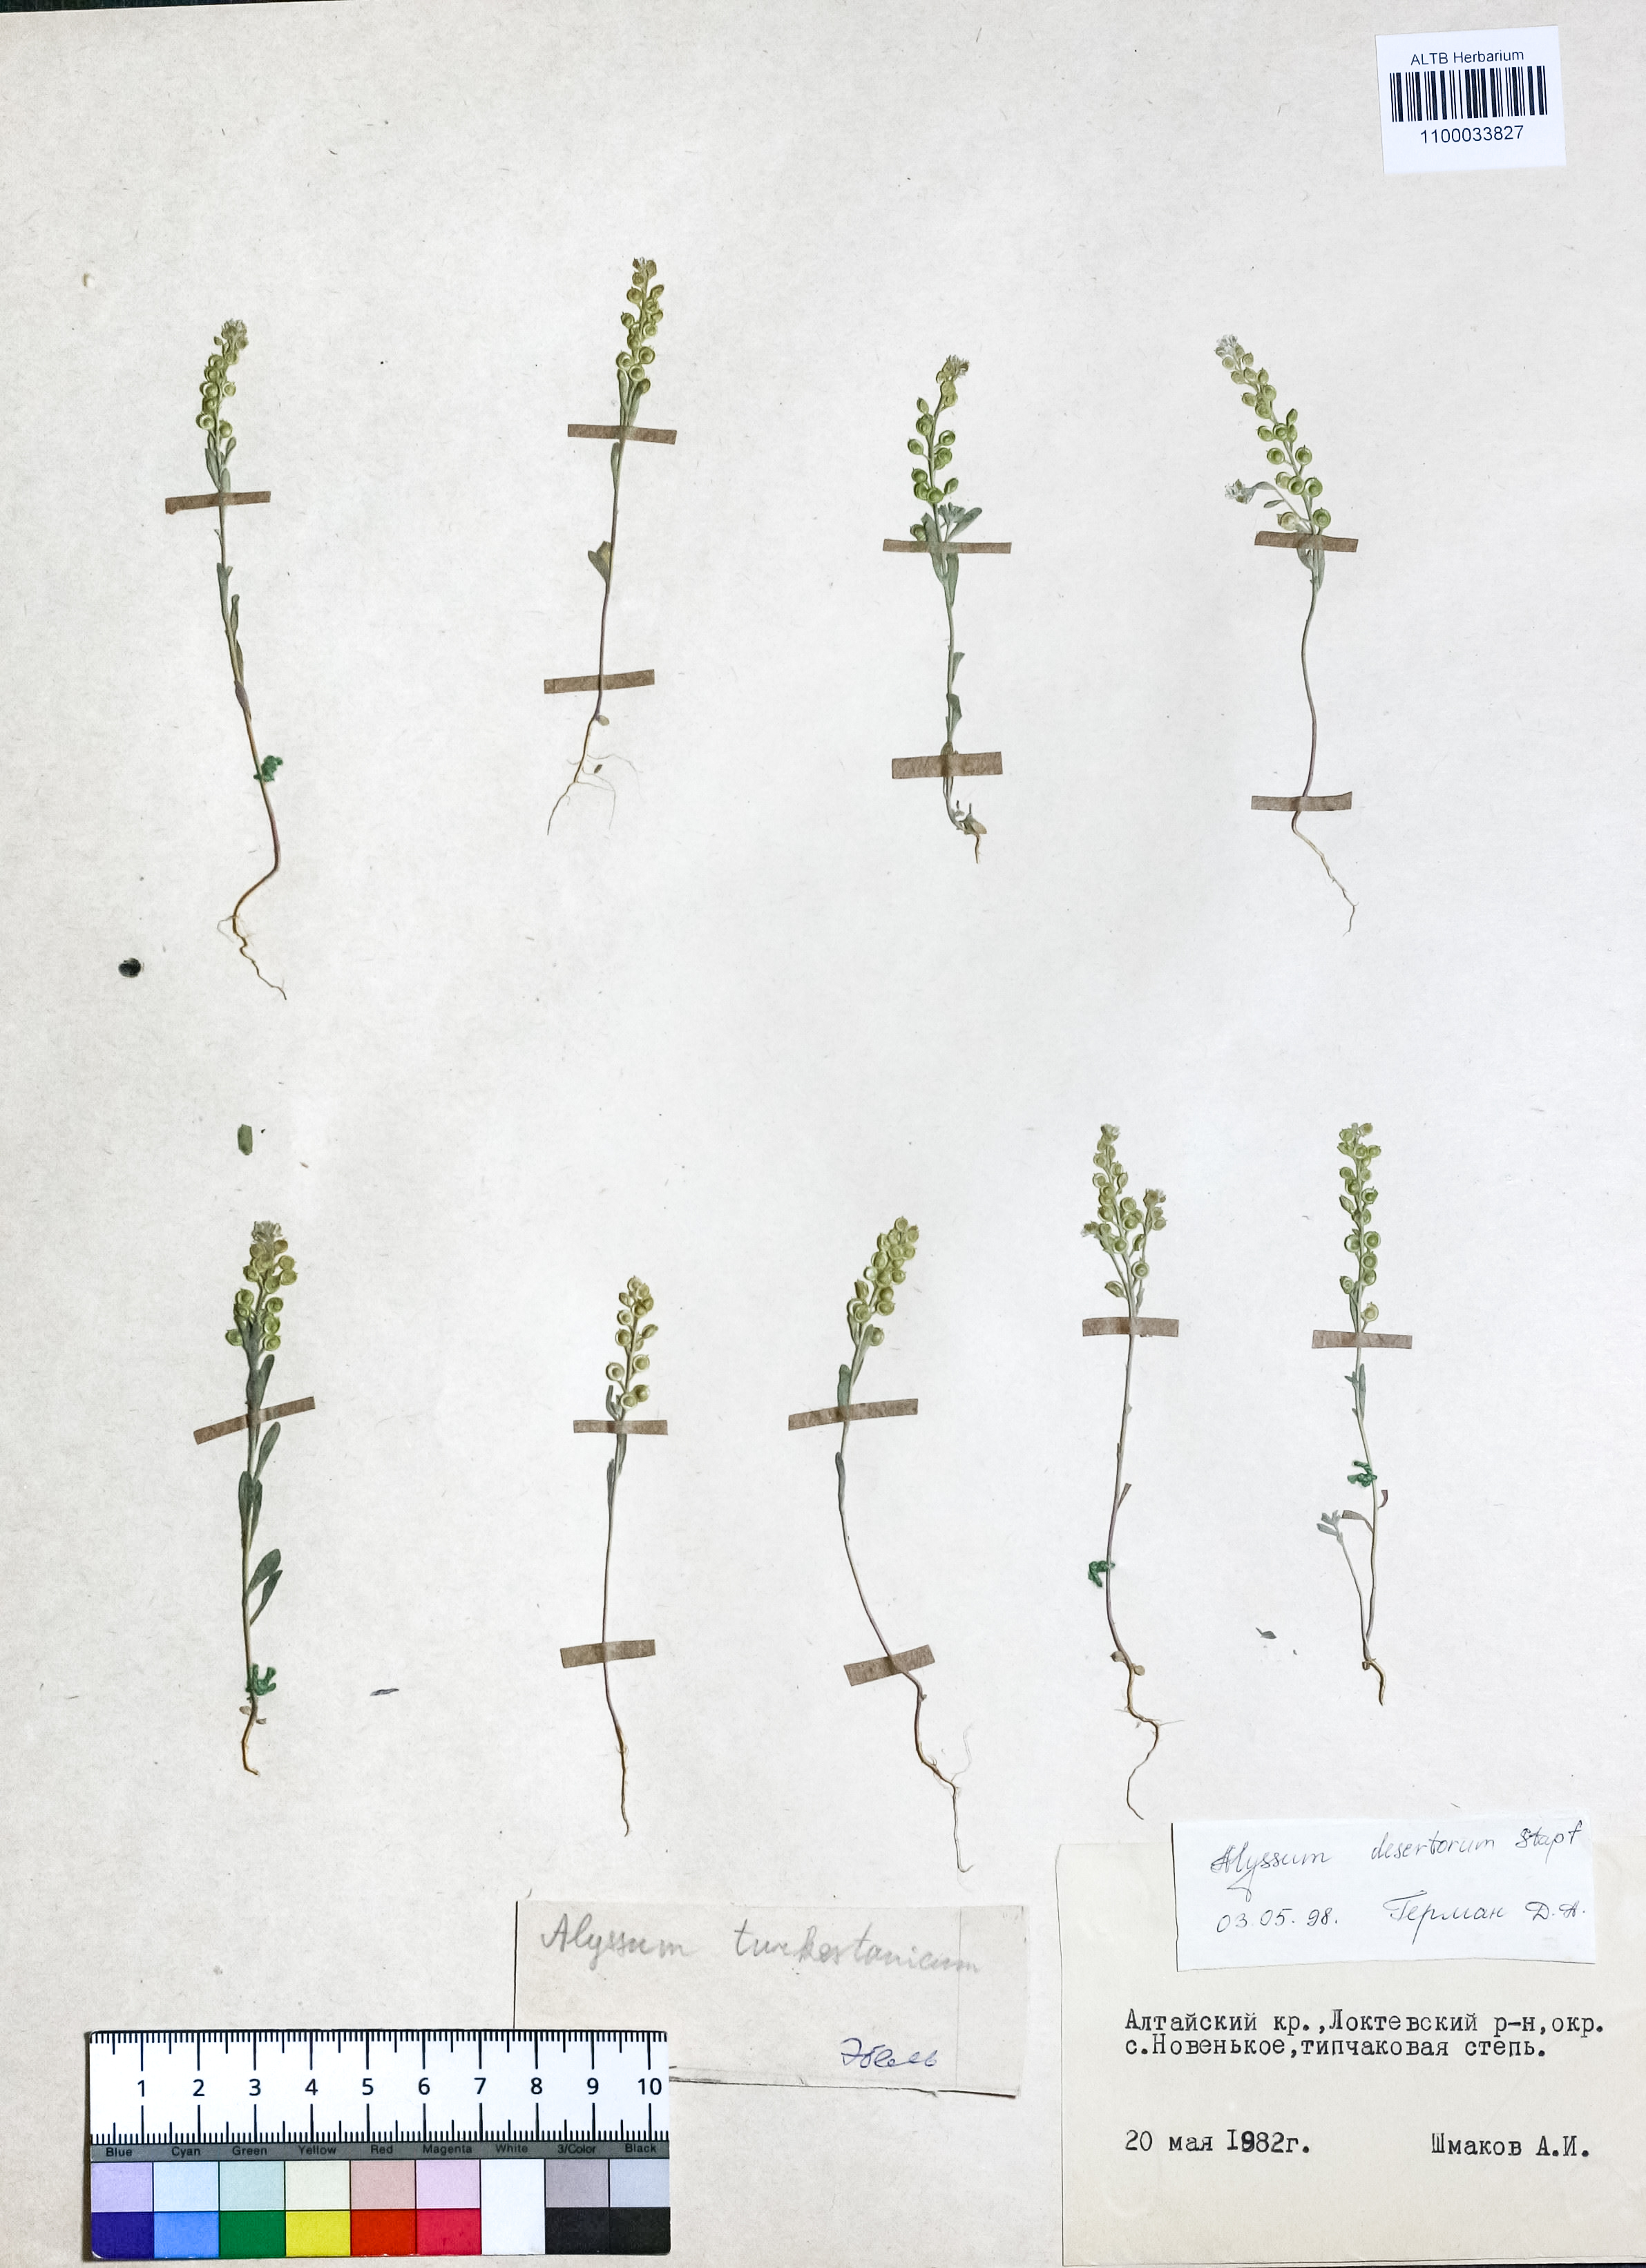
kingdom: Plantae
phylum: Tracheophyta
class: Magnoliopsida
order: Brassicales
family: Brassicaceae
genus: Alyssum
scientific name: Alyssum turkestanicum
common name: Desert alyssum
